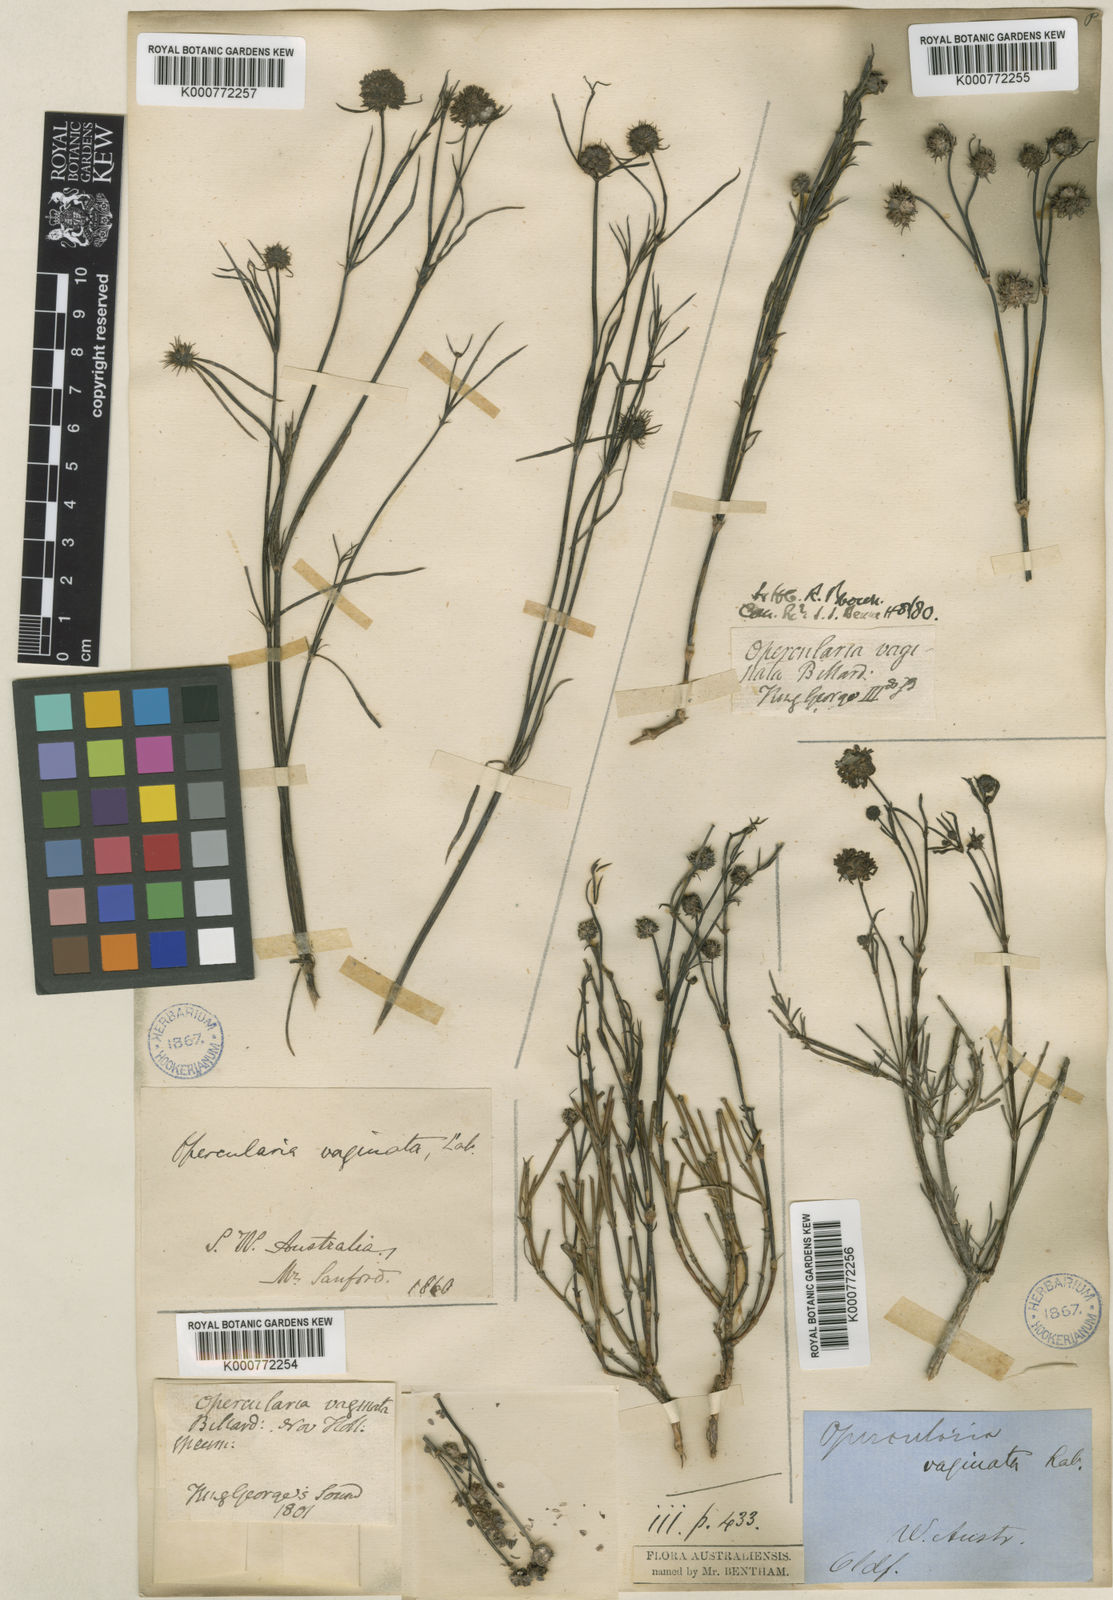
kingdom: Plantae
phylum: Tracheophyta
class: Magnoliopsida
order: Gentianales
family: Rubiaceae
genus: Opercularia
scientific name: Opercularia vaginata
